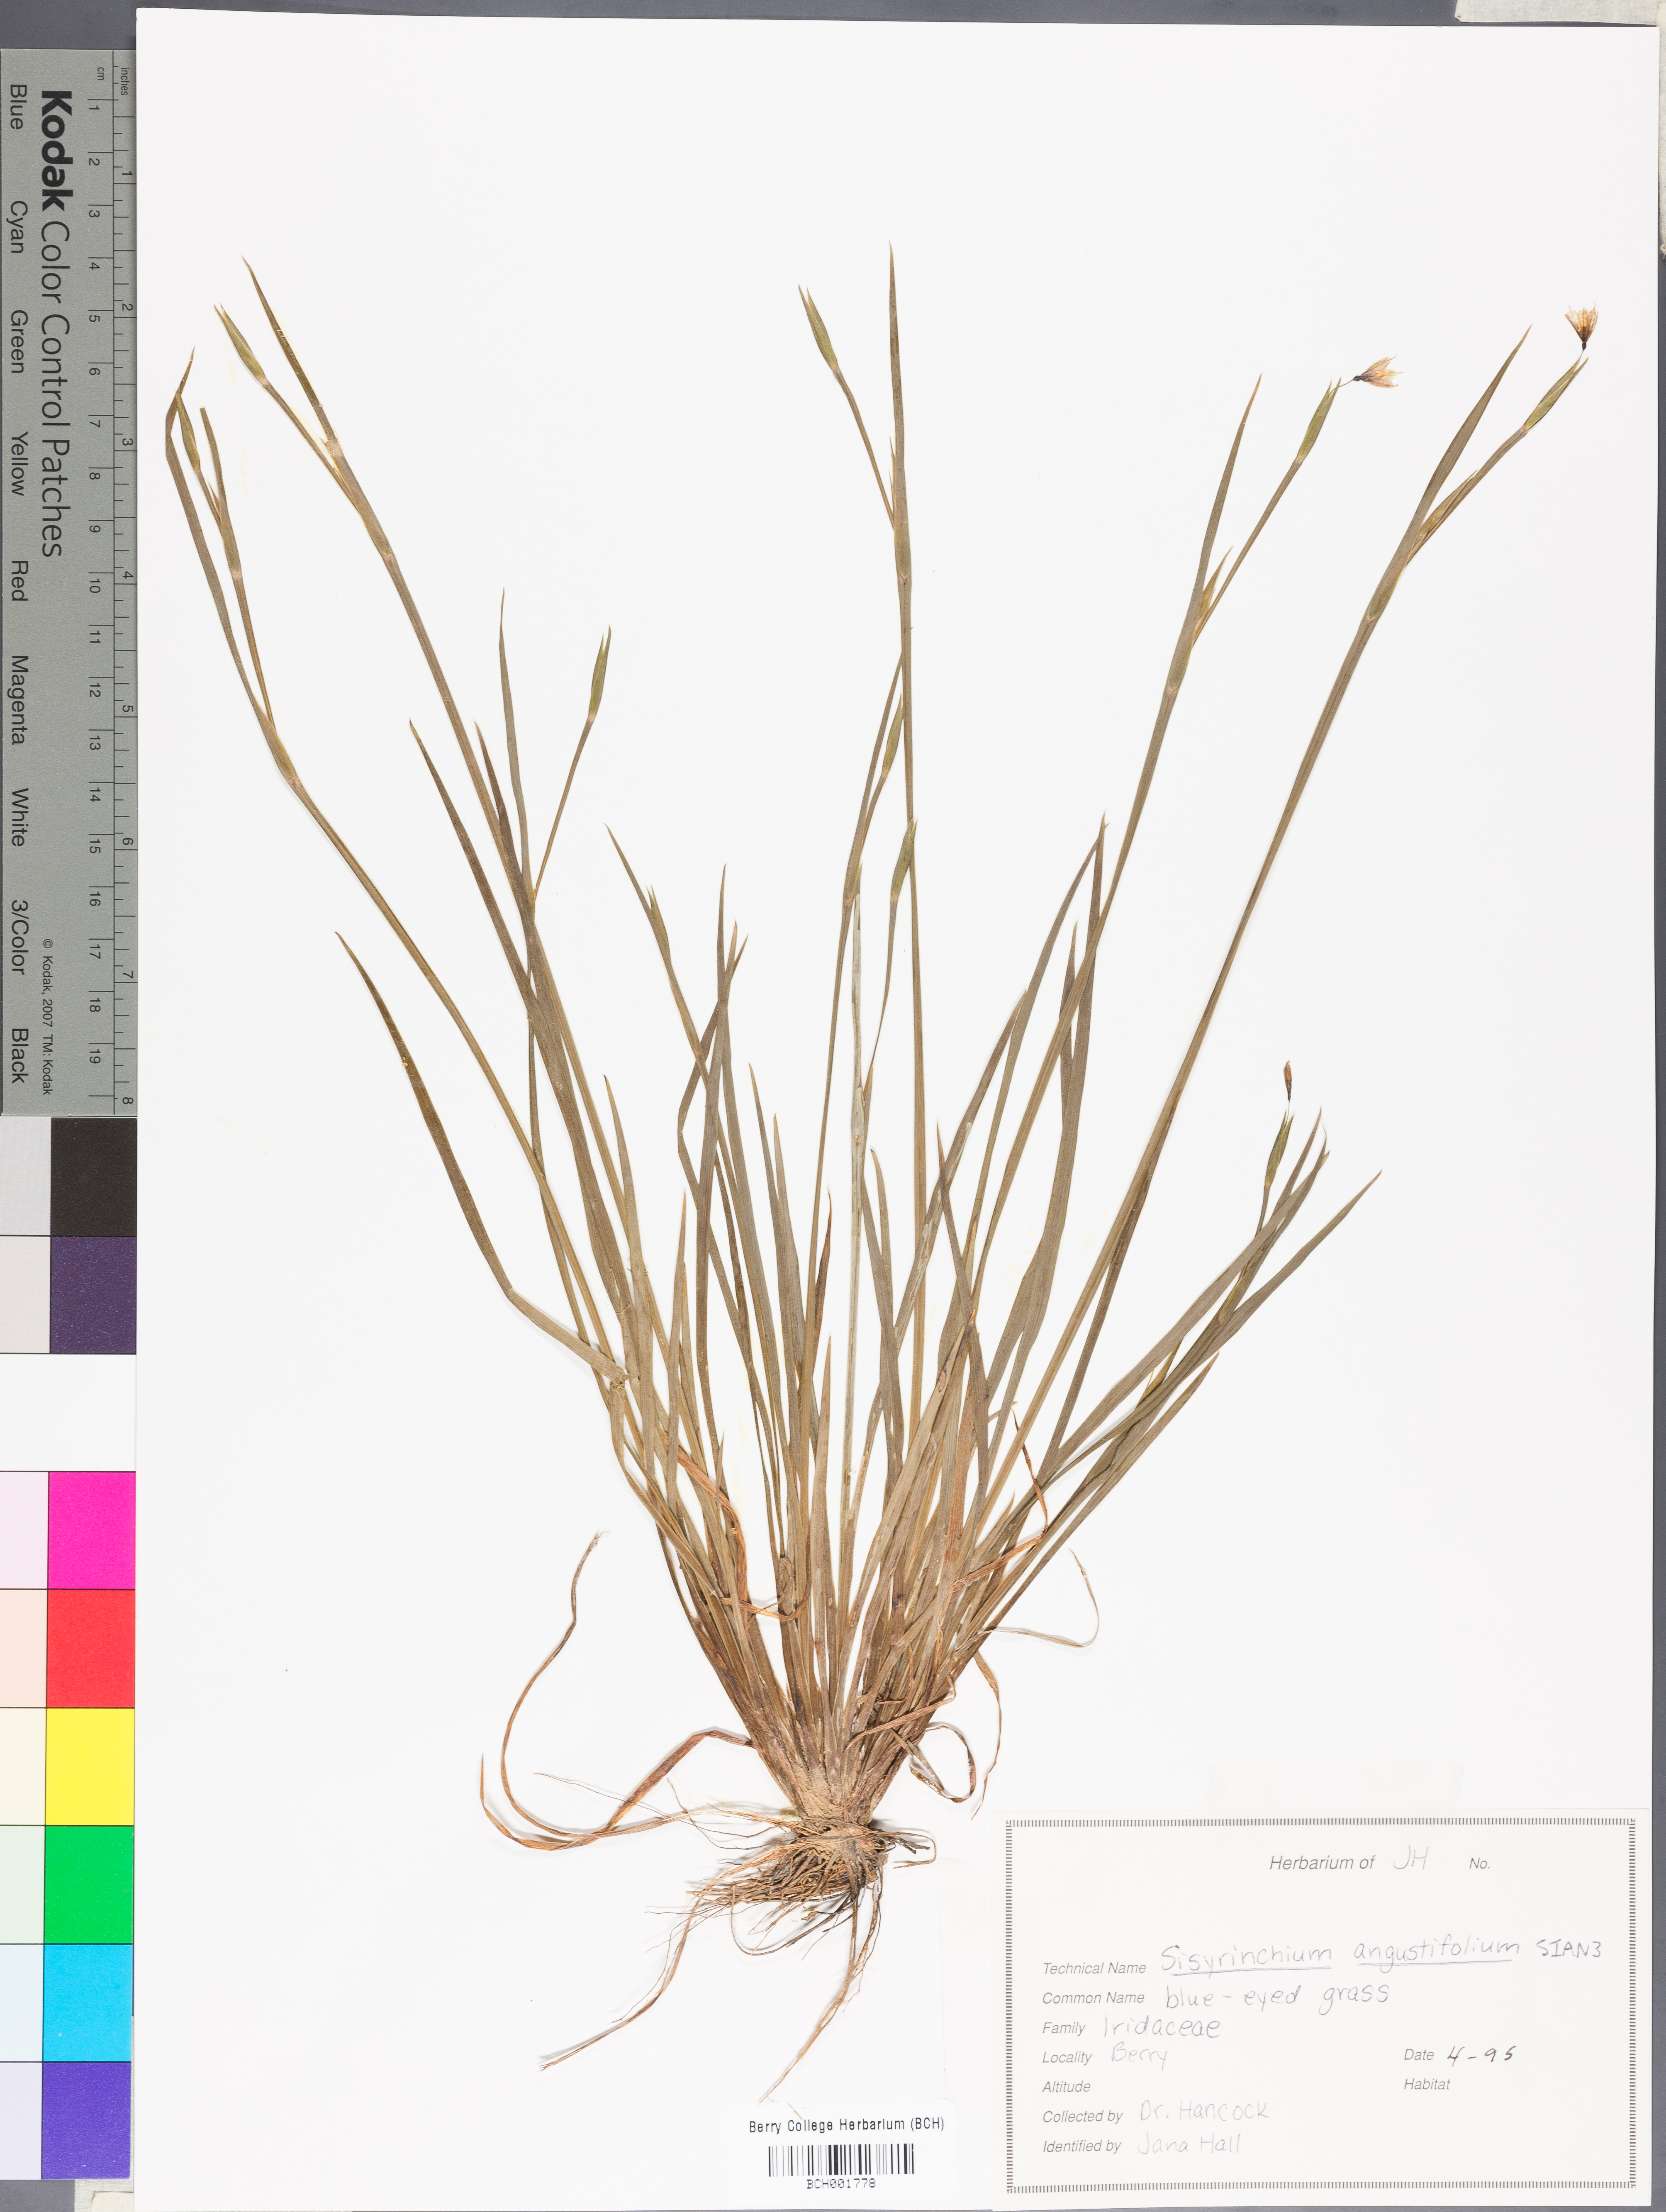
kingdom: Plantae
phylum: Tracheophyta
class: Liliopsida
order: Asparagales
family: Iridaceae
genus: Sisyrinchium
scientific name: Sisyrinchium angustifolium
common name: Narrow-leaf blue-eyed-grass
